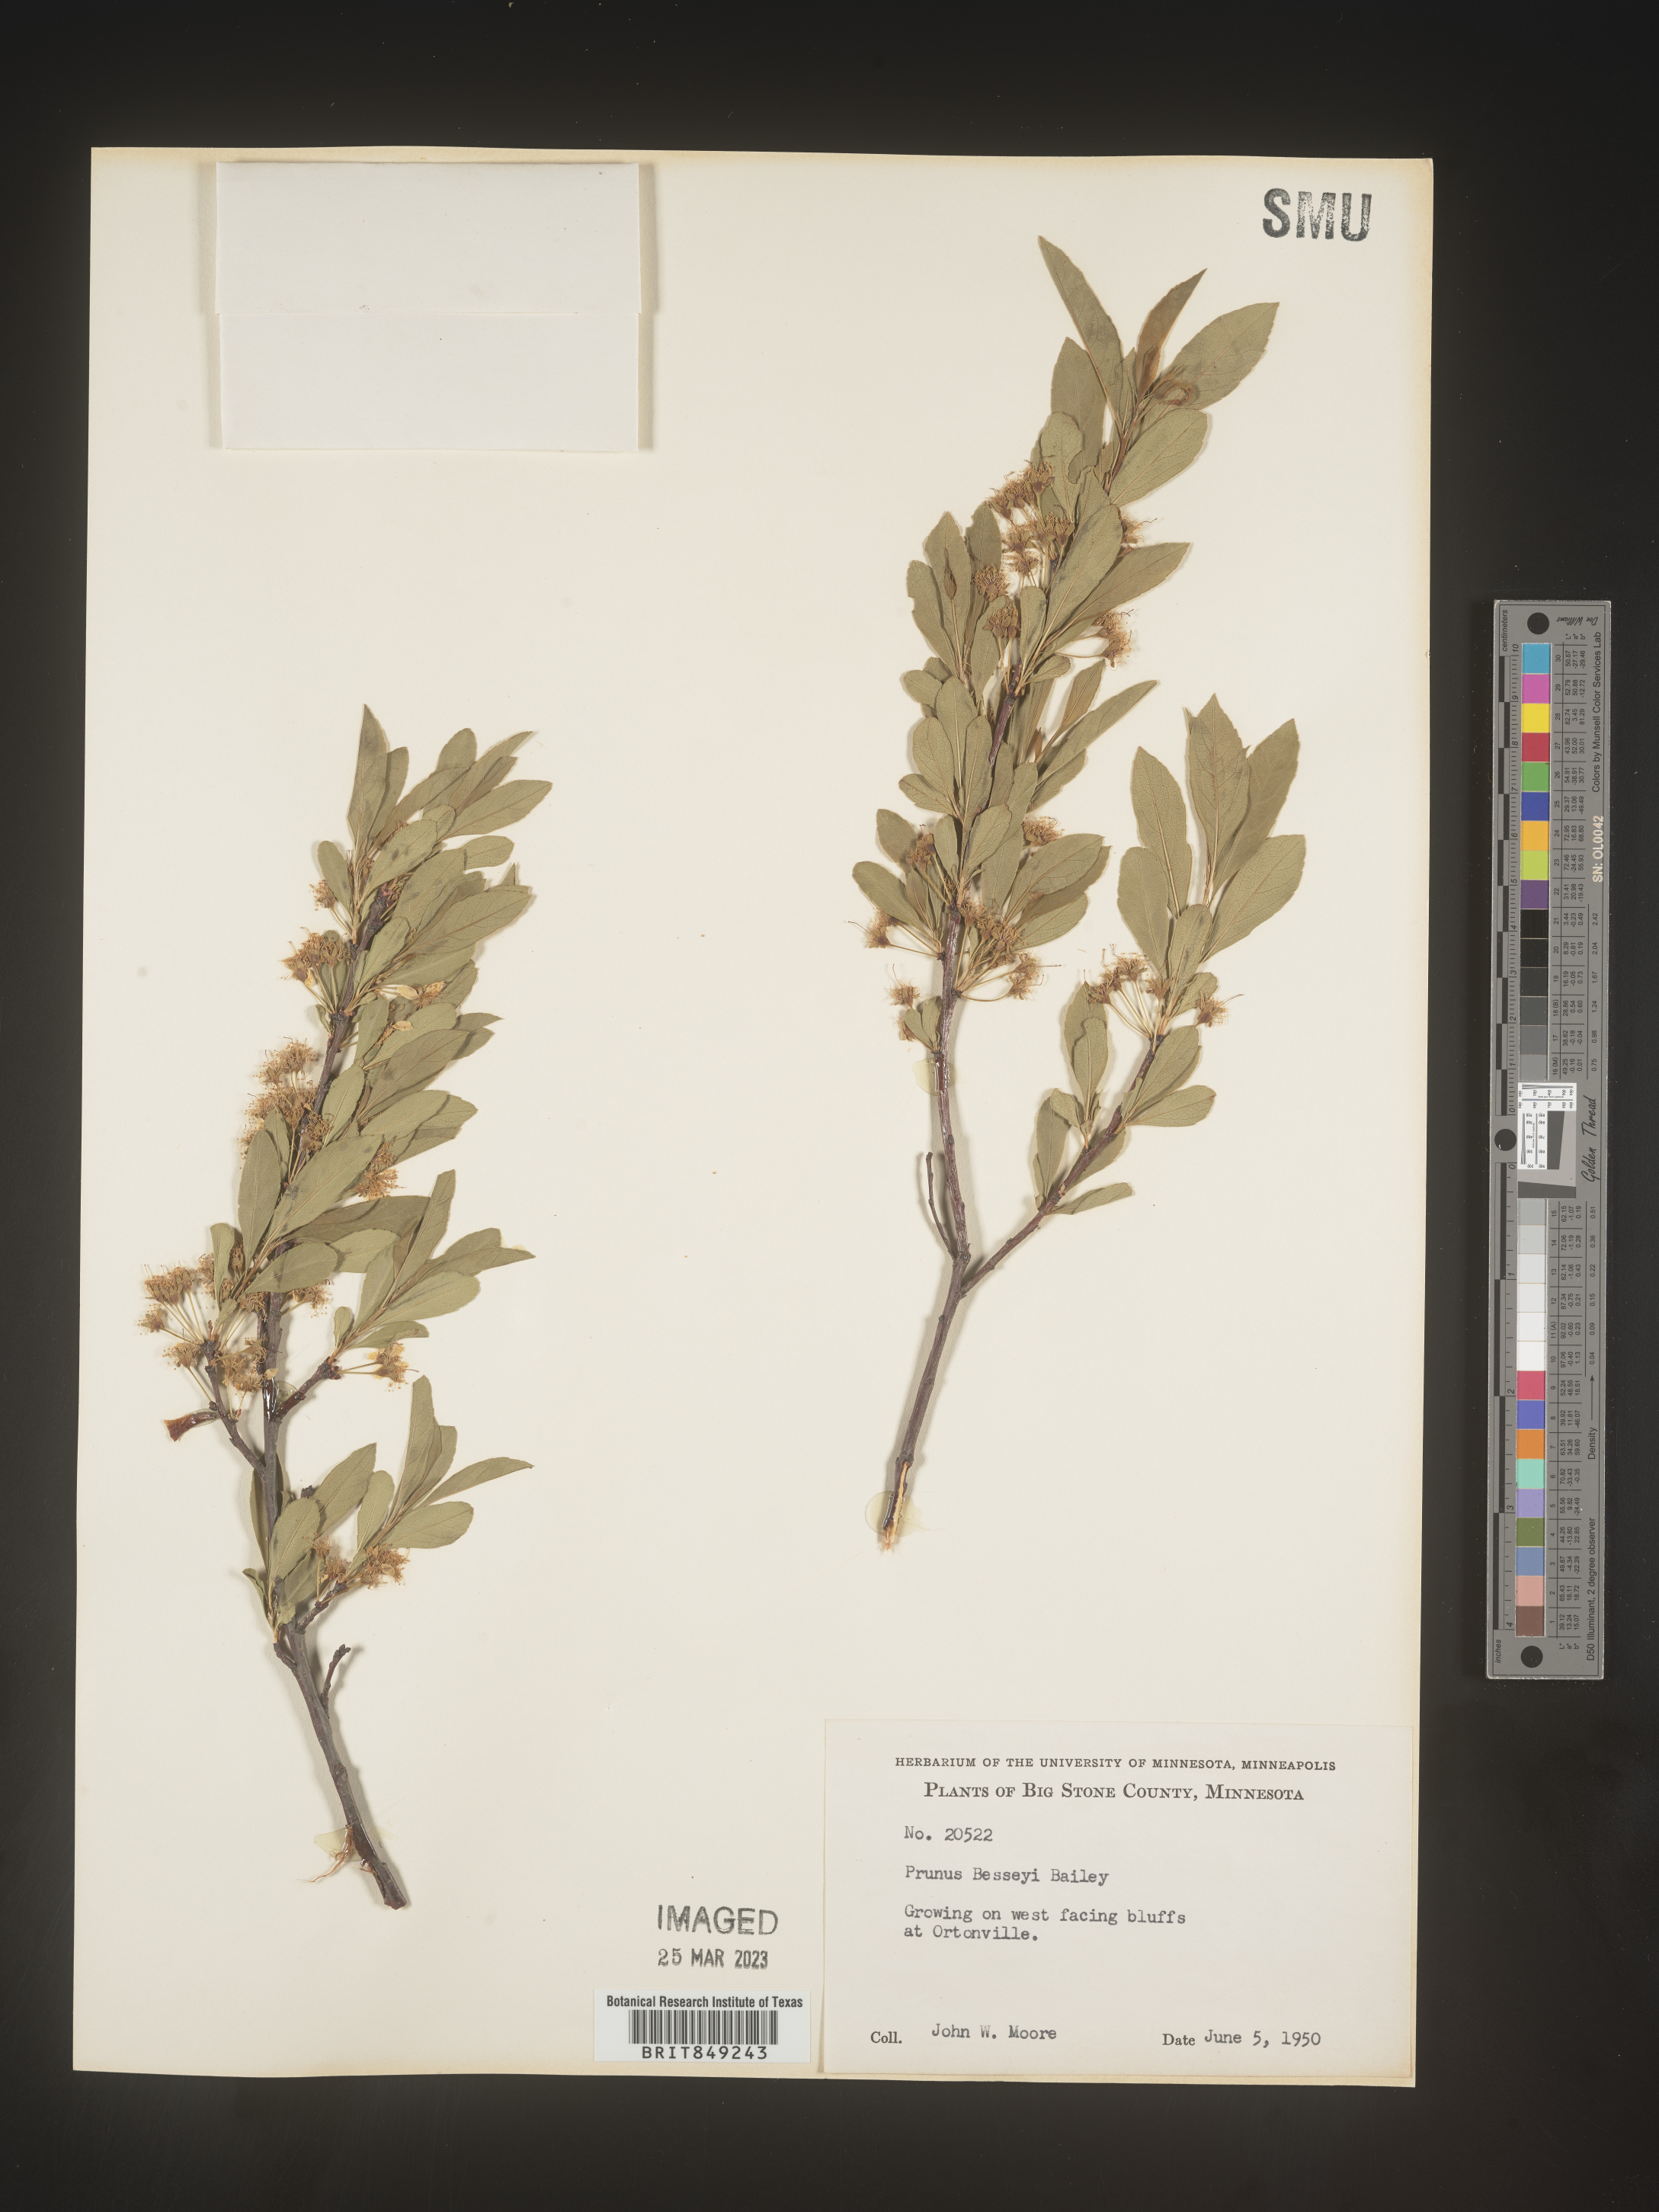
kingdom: Plantae
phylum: Tracheophyta
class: Magnoliopsida
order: Rosales
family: Rosaceae
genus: Prunus
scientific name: Prunus pumila
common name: Dwarf cherry
